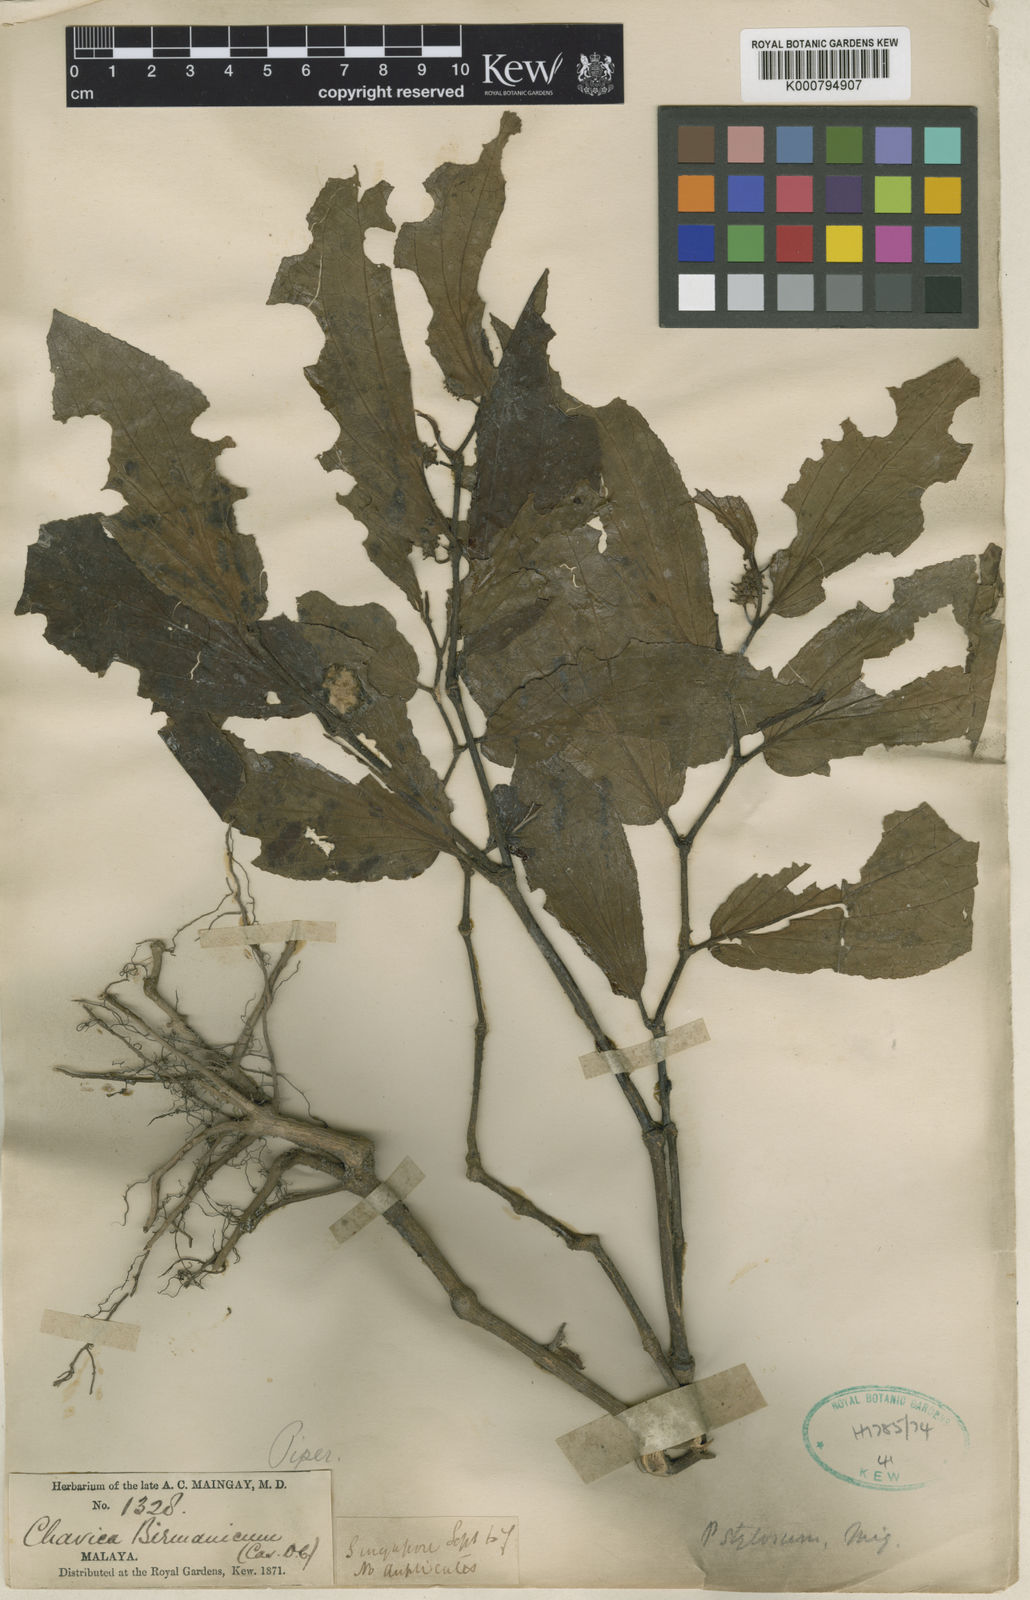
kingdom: Plantae
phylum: Tracheophyta
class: Magnoliopsida
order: Piperales
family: Piperaceae
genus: Piper
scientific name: Piper rostratum
